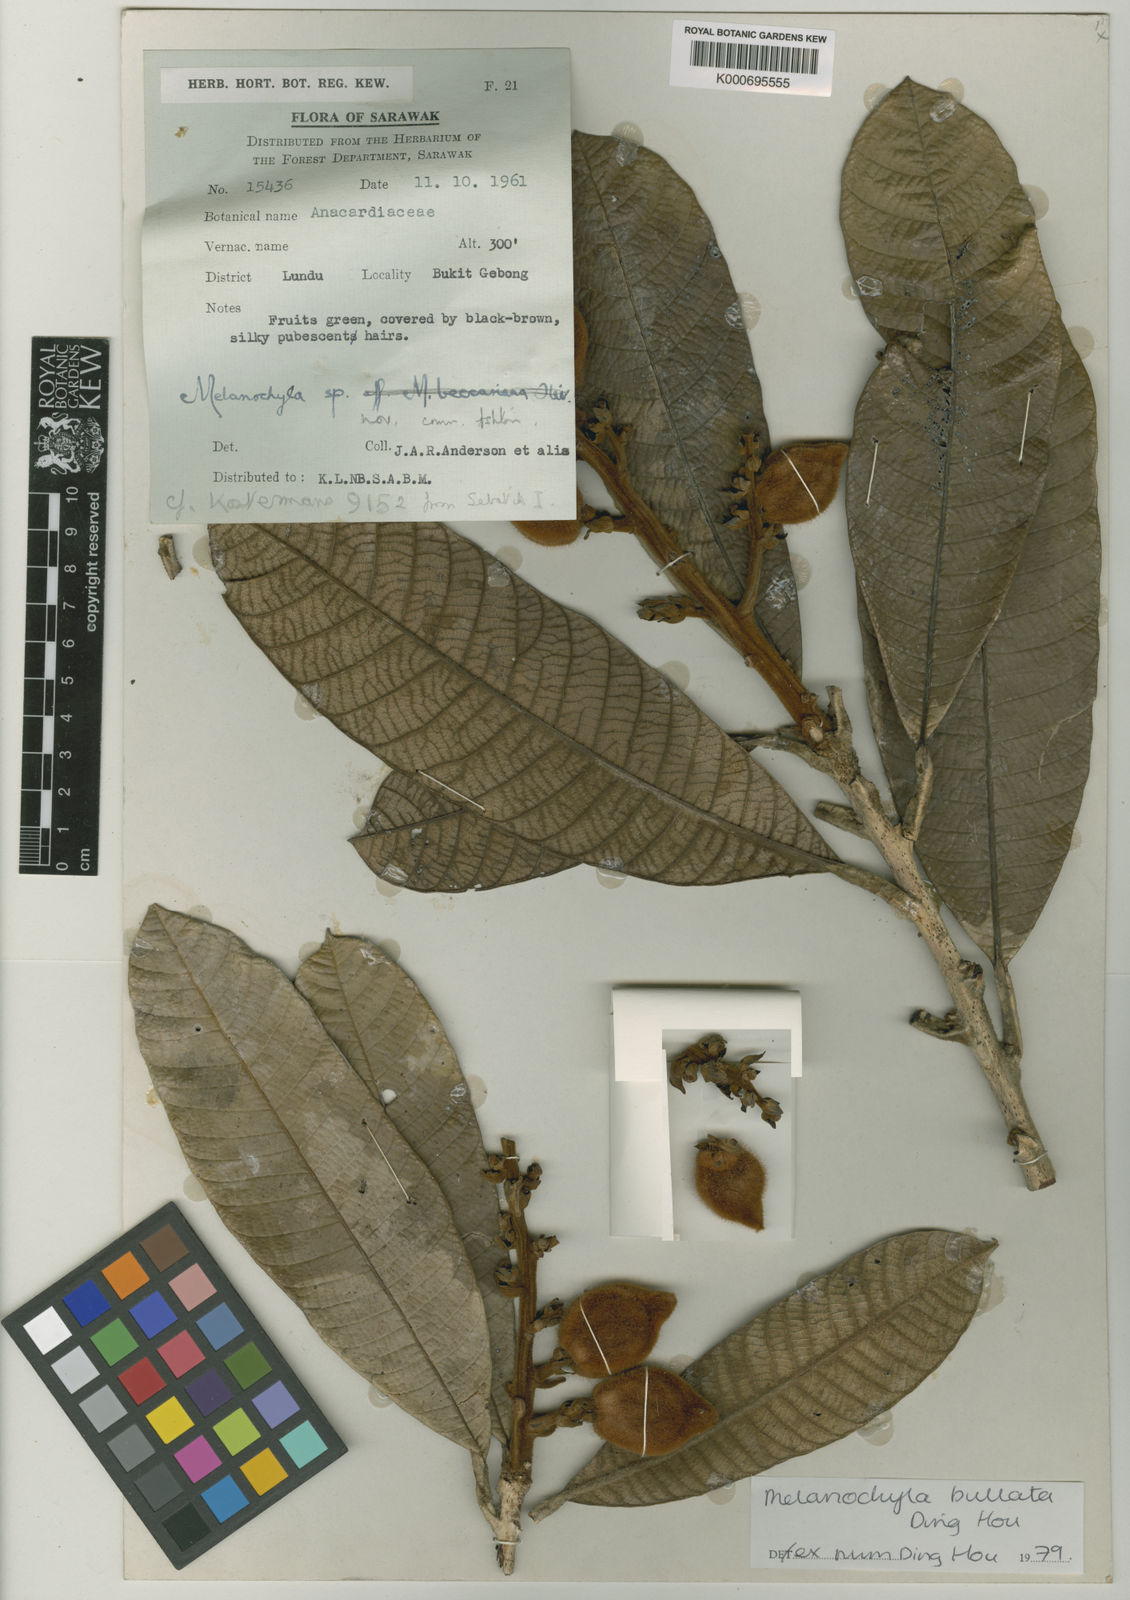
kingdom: Plantae
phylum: Tracheophyta
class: Magnoliopsida
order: Sapindales
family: Anacardiaceae
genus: Melanochyla
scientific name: Melanochyla bullata
